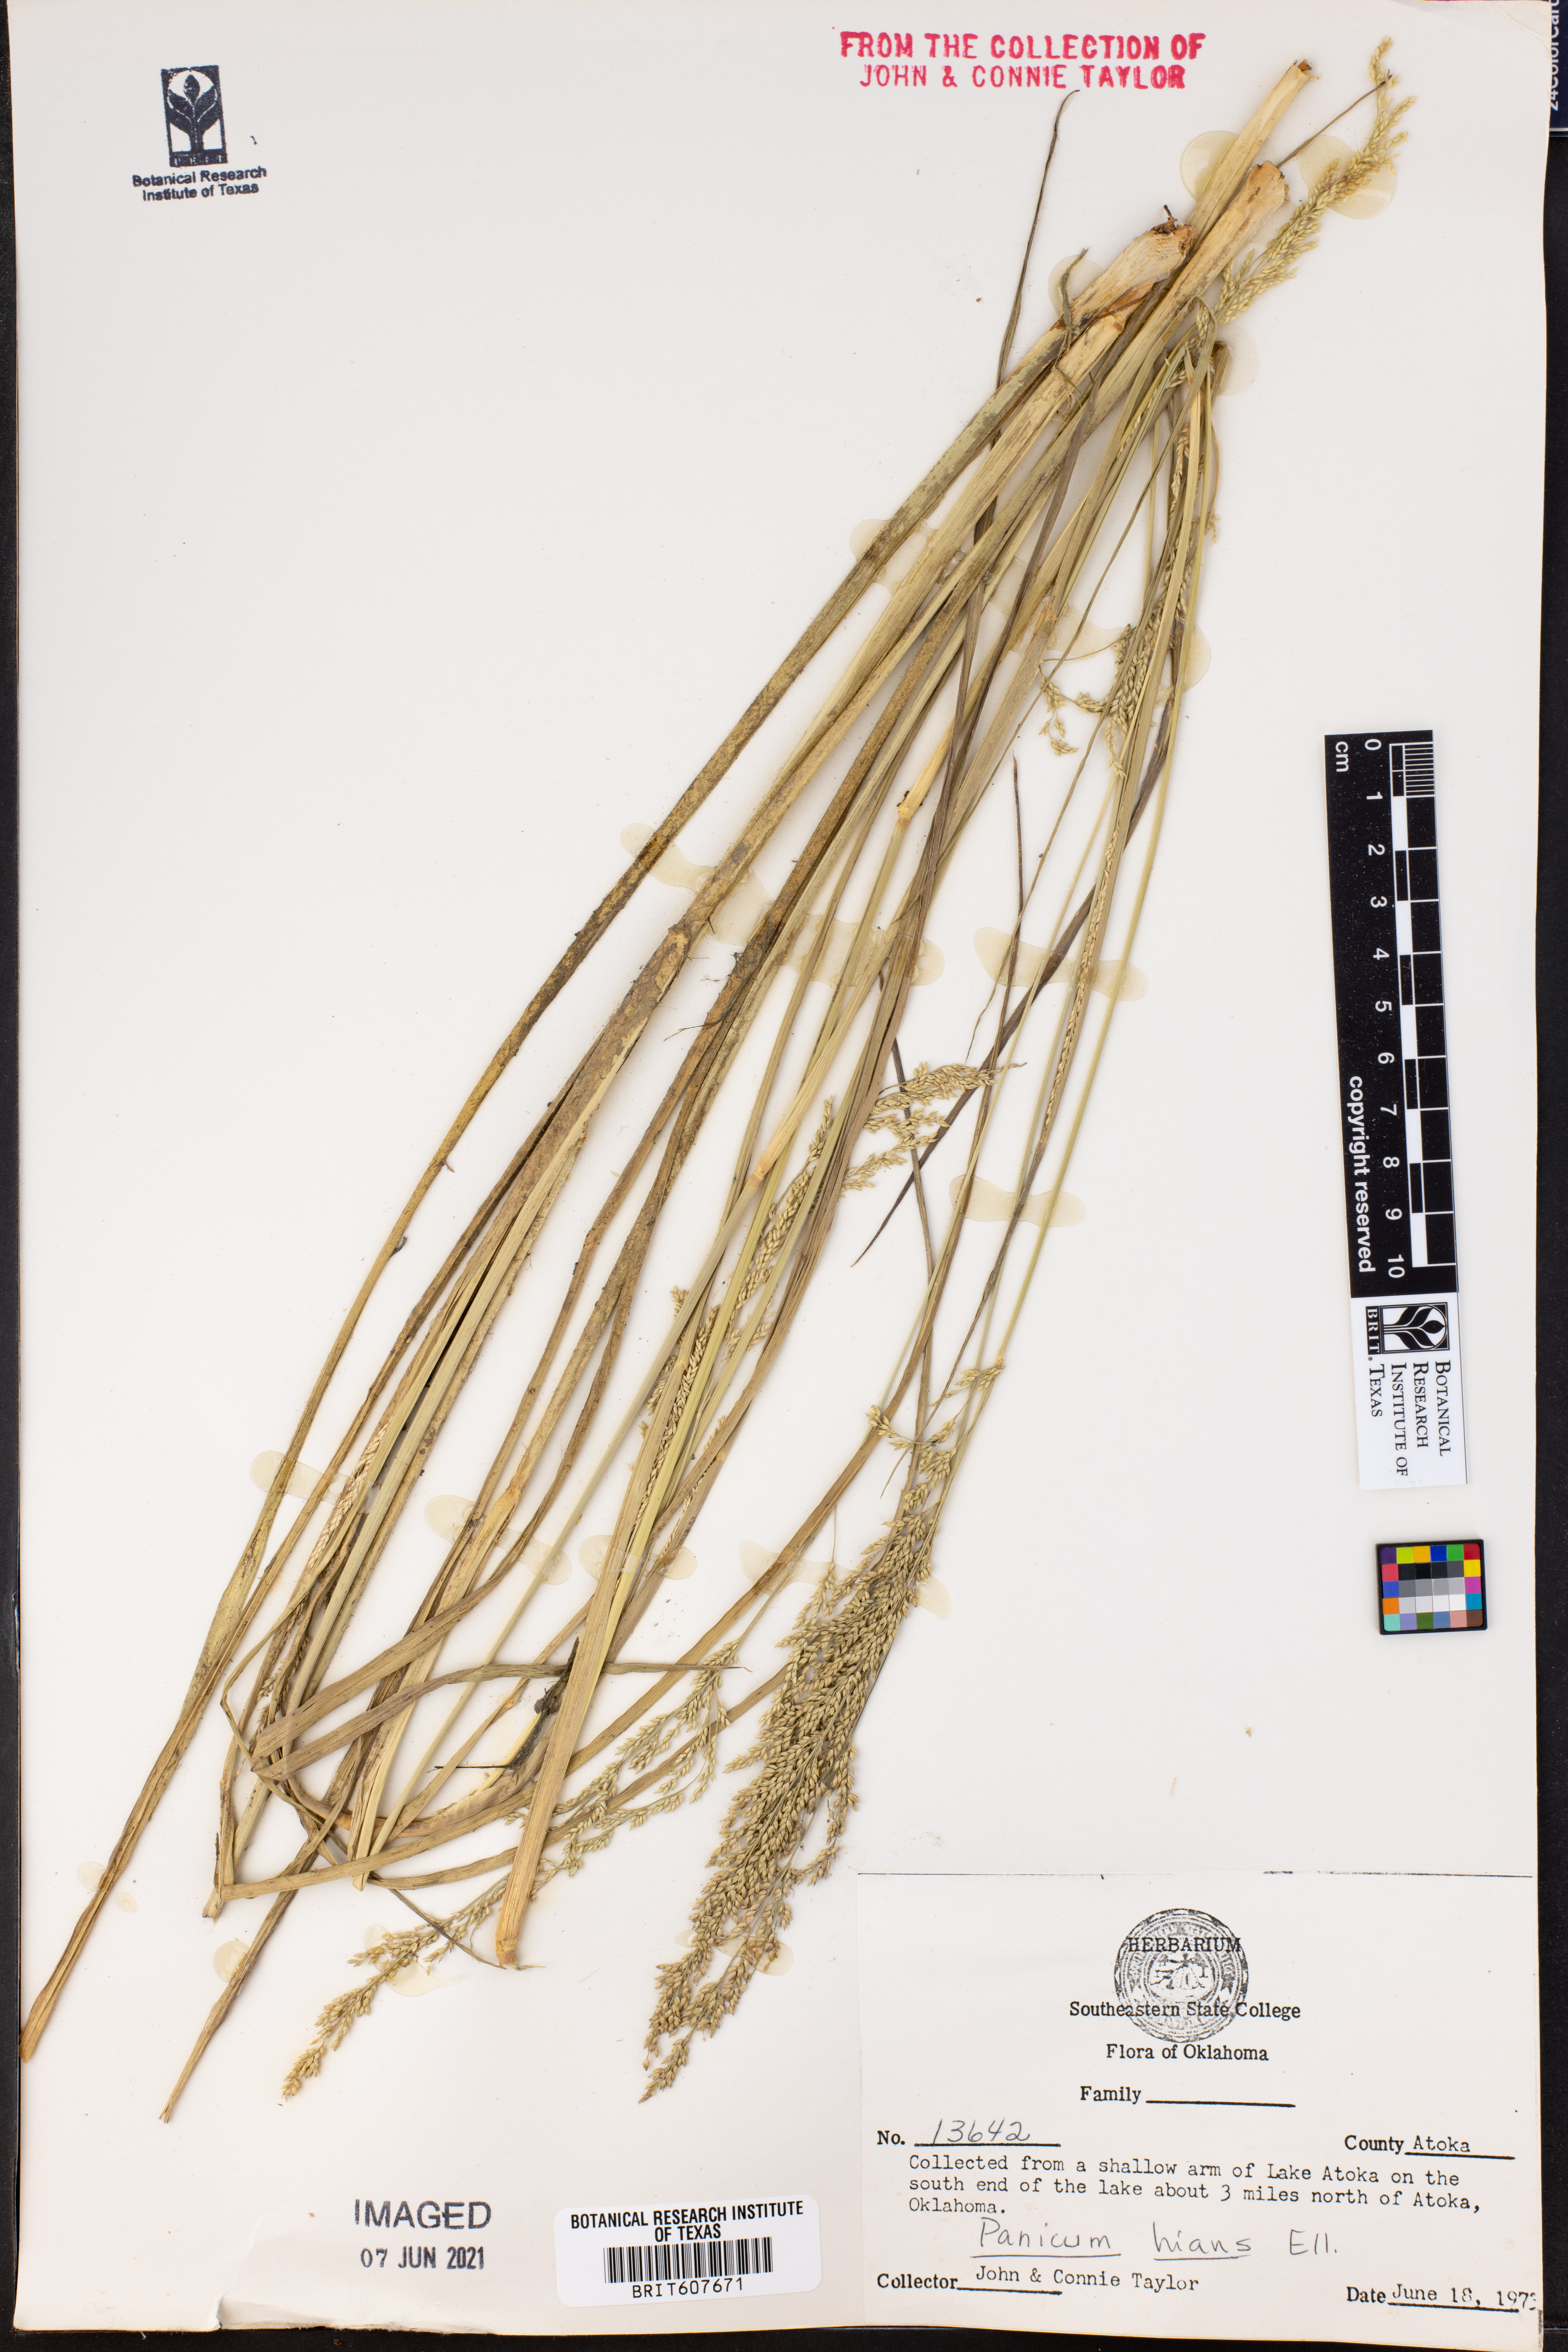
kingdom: Plantae
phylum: Tracheophyta
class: Liliopsida
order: Poales
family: Poaceae
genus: Coleataenia
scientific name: Coleataenia stenodes
